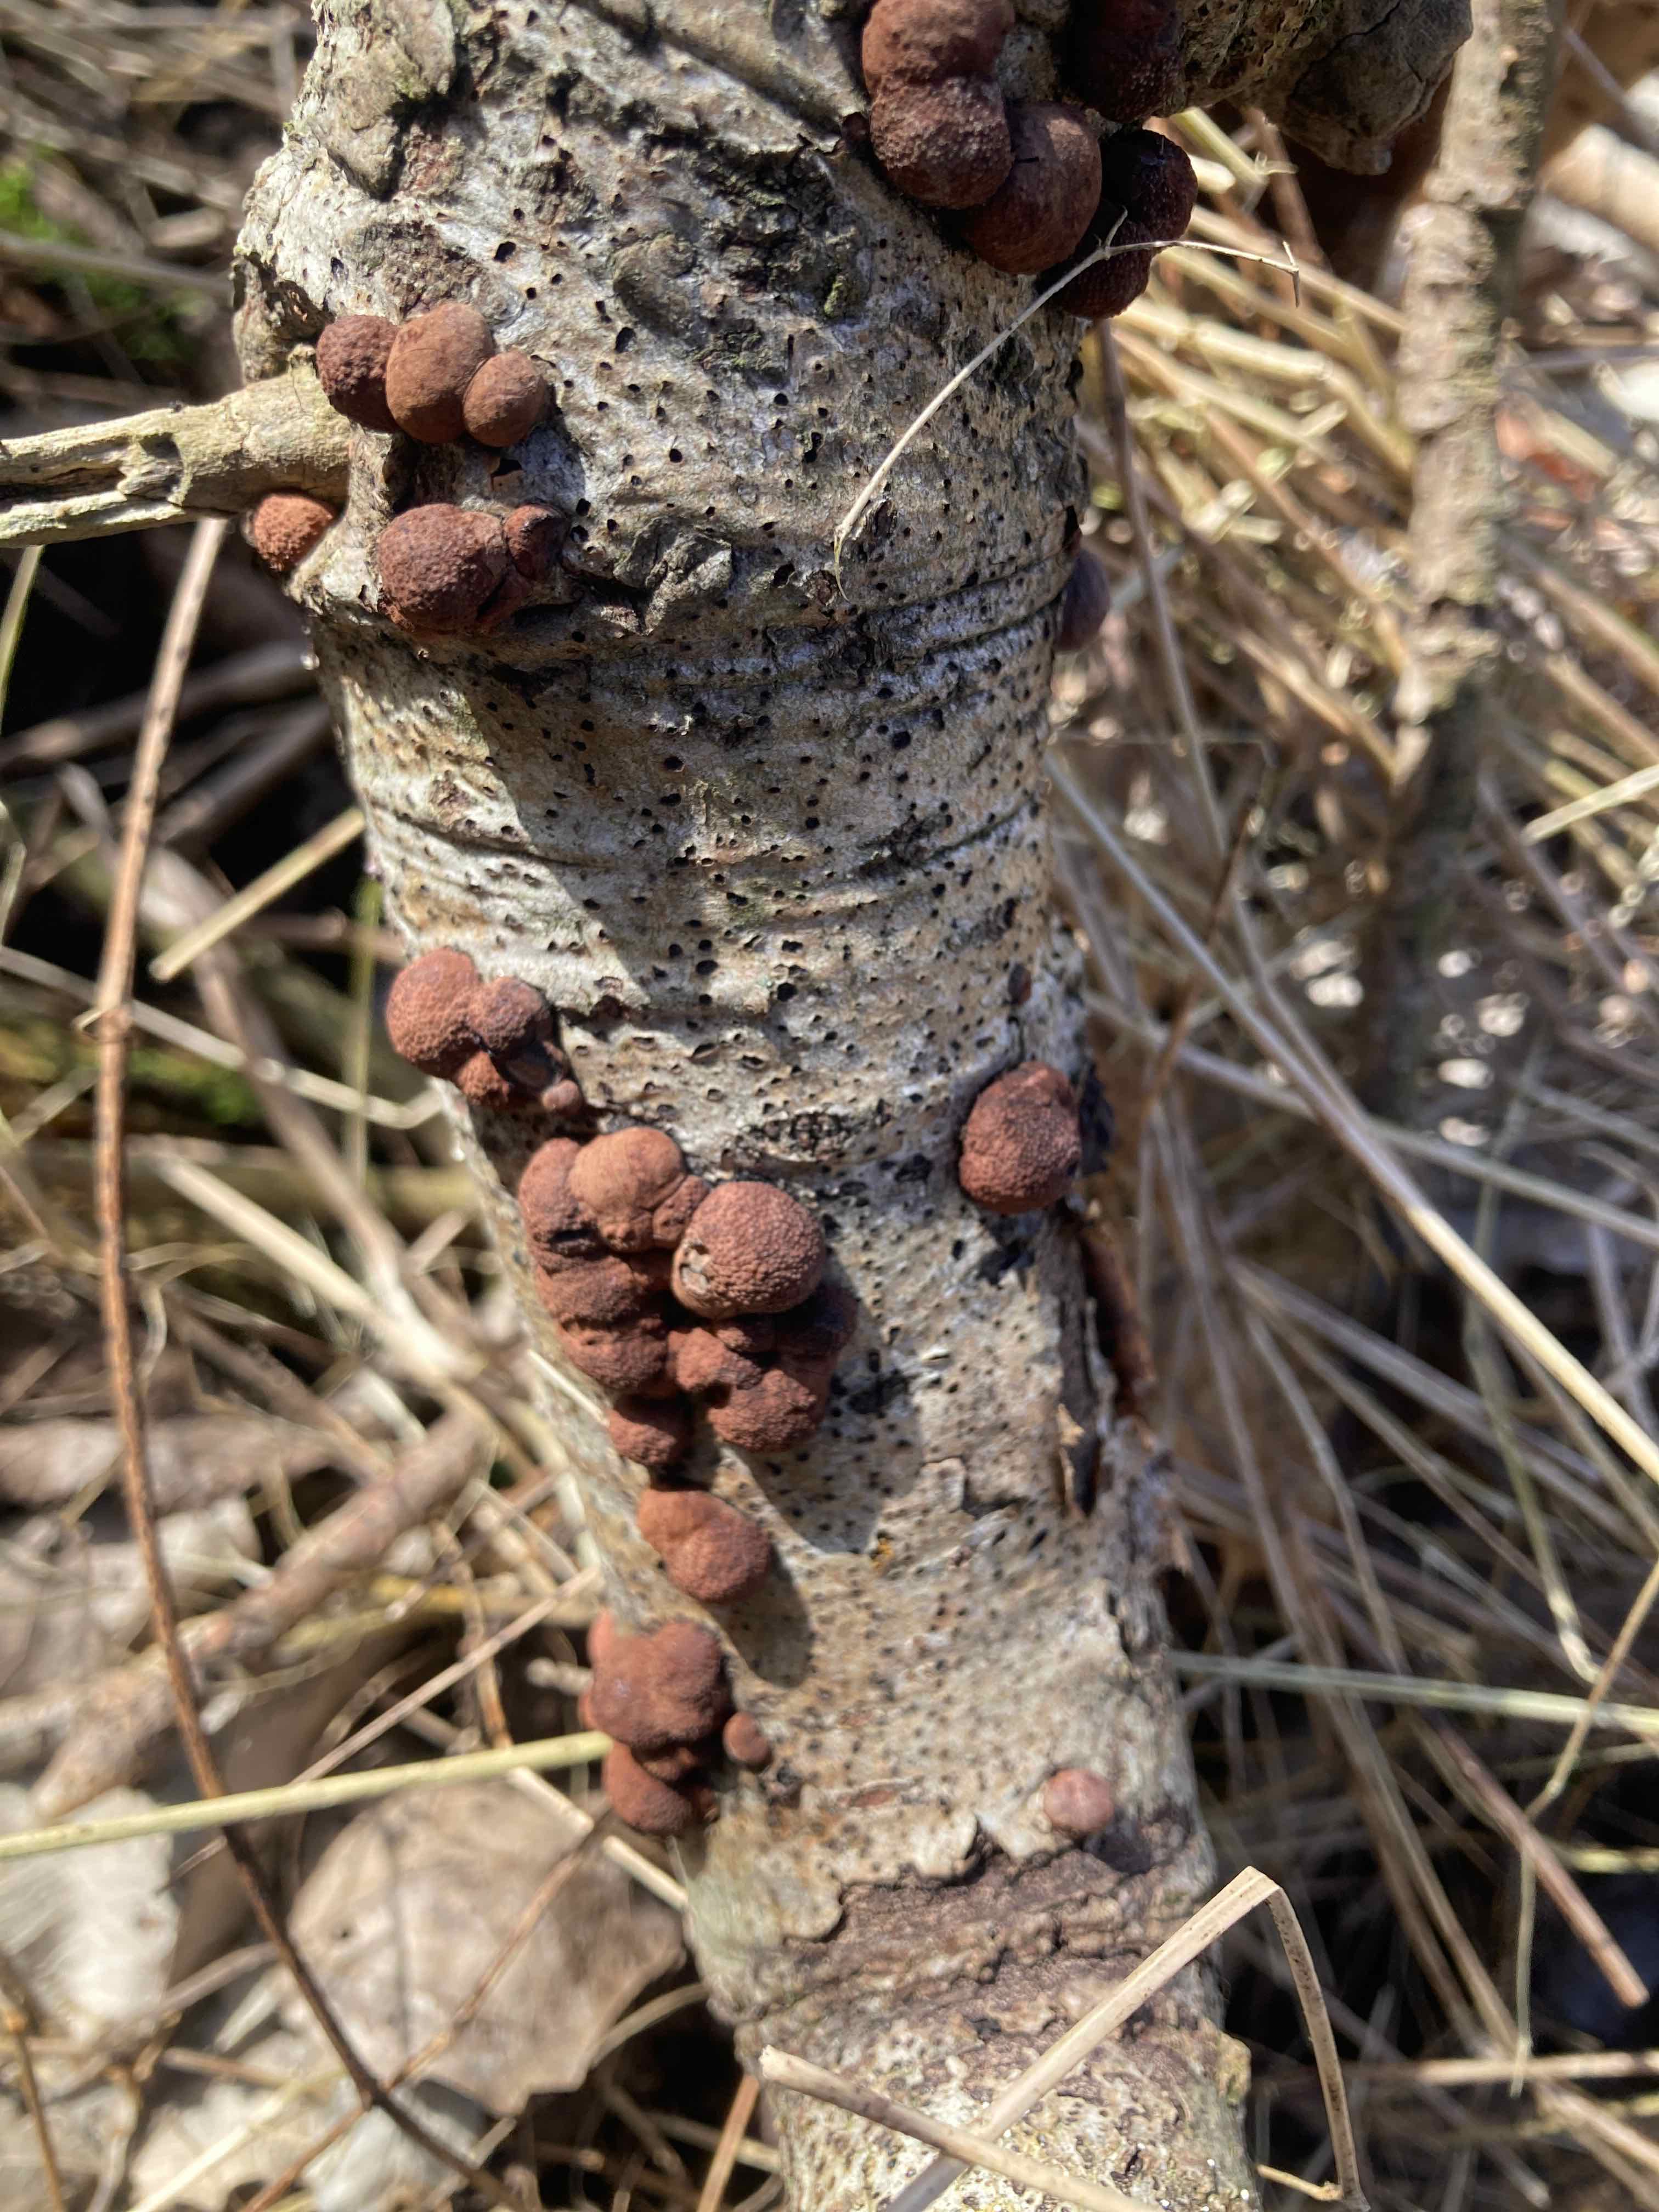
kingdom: Fungi
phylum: Ascomycota
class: Sordariomycetes
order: Xylariales
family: Hypoxylaceae
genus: Hypoxylon
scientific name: Hypoxylon fragiforme
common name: kuljordbær
